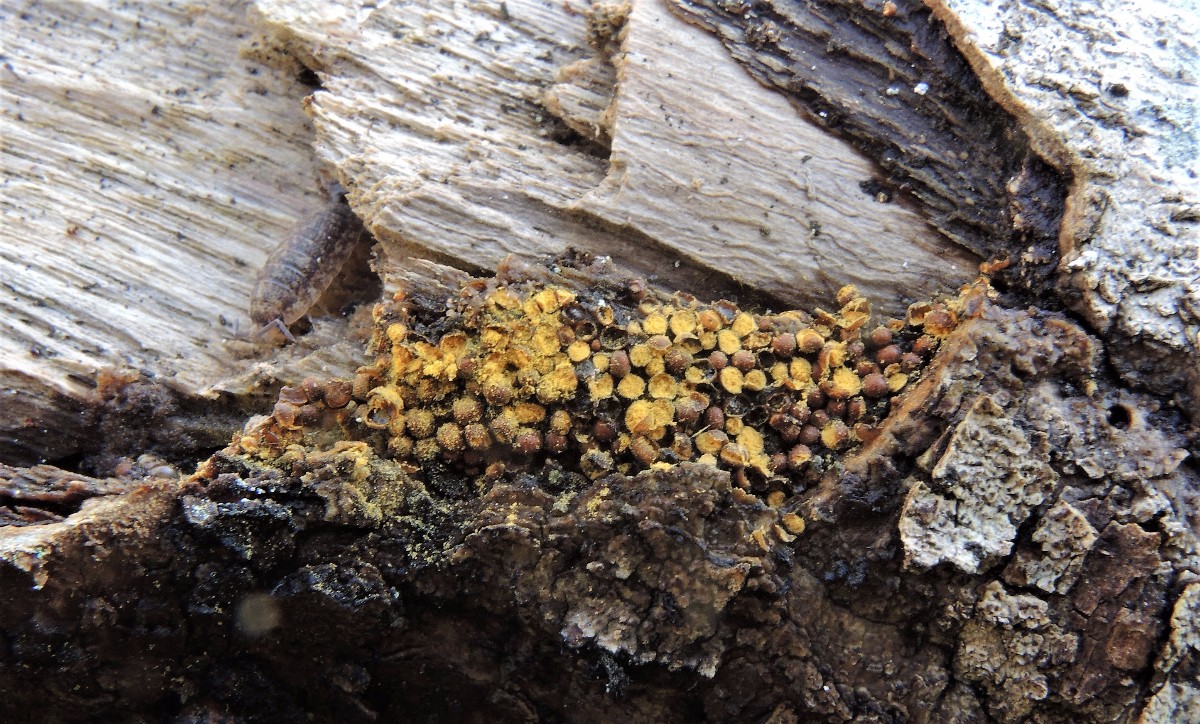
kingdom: Protozoa
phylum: Mycetozoa
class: Myxomycetes
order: Trichiales
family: Trichiaceae
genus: Perichaena
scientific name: Perichaena corticalis
